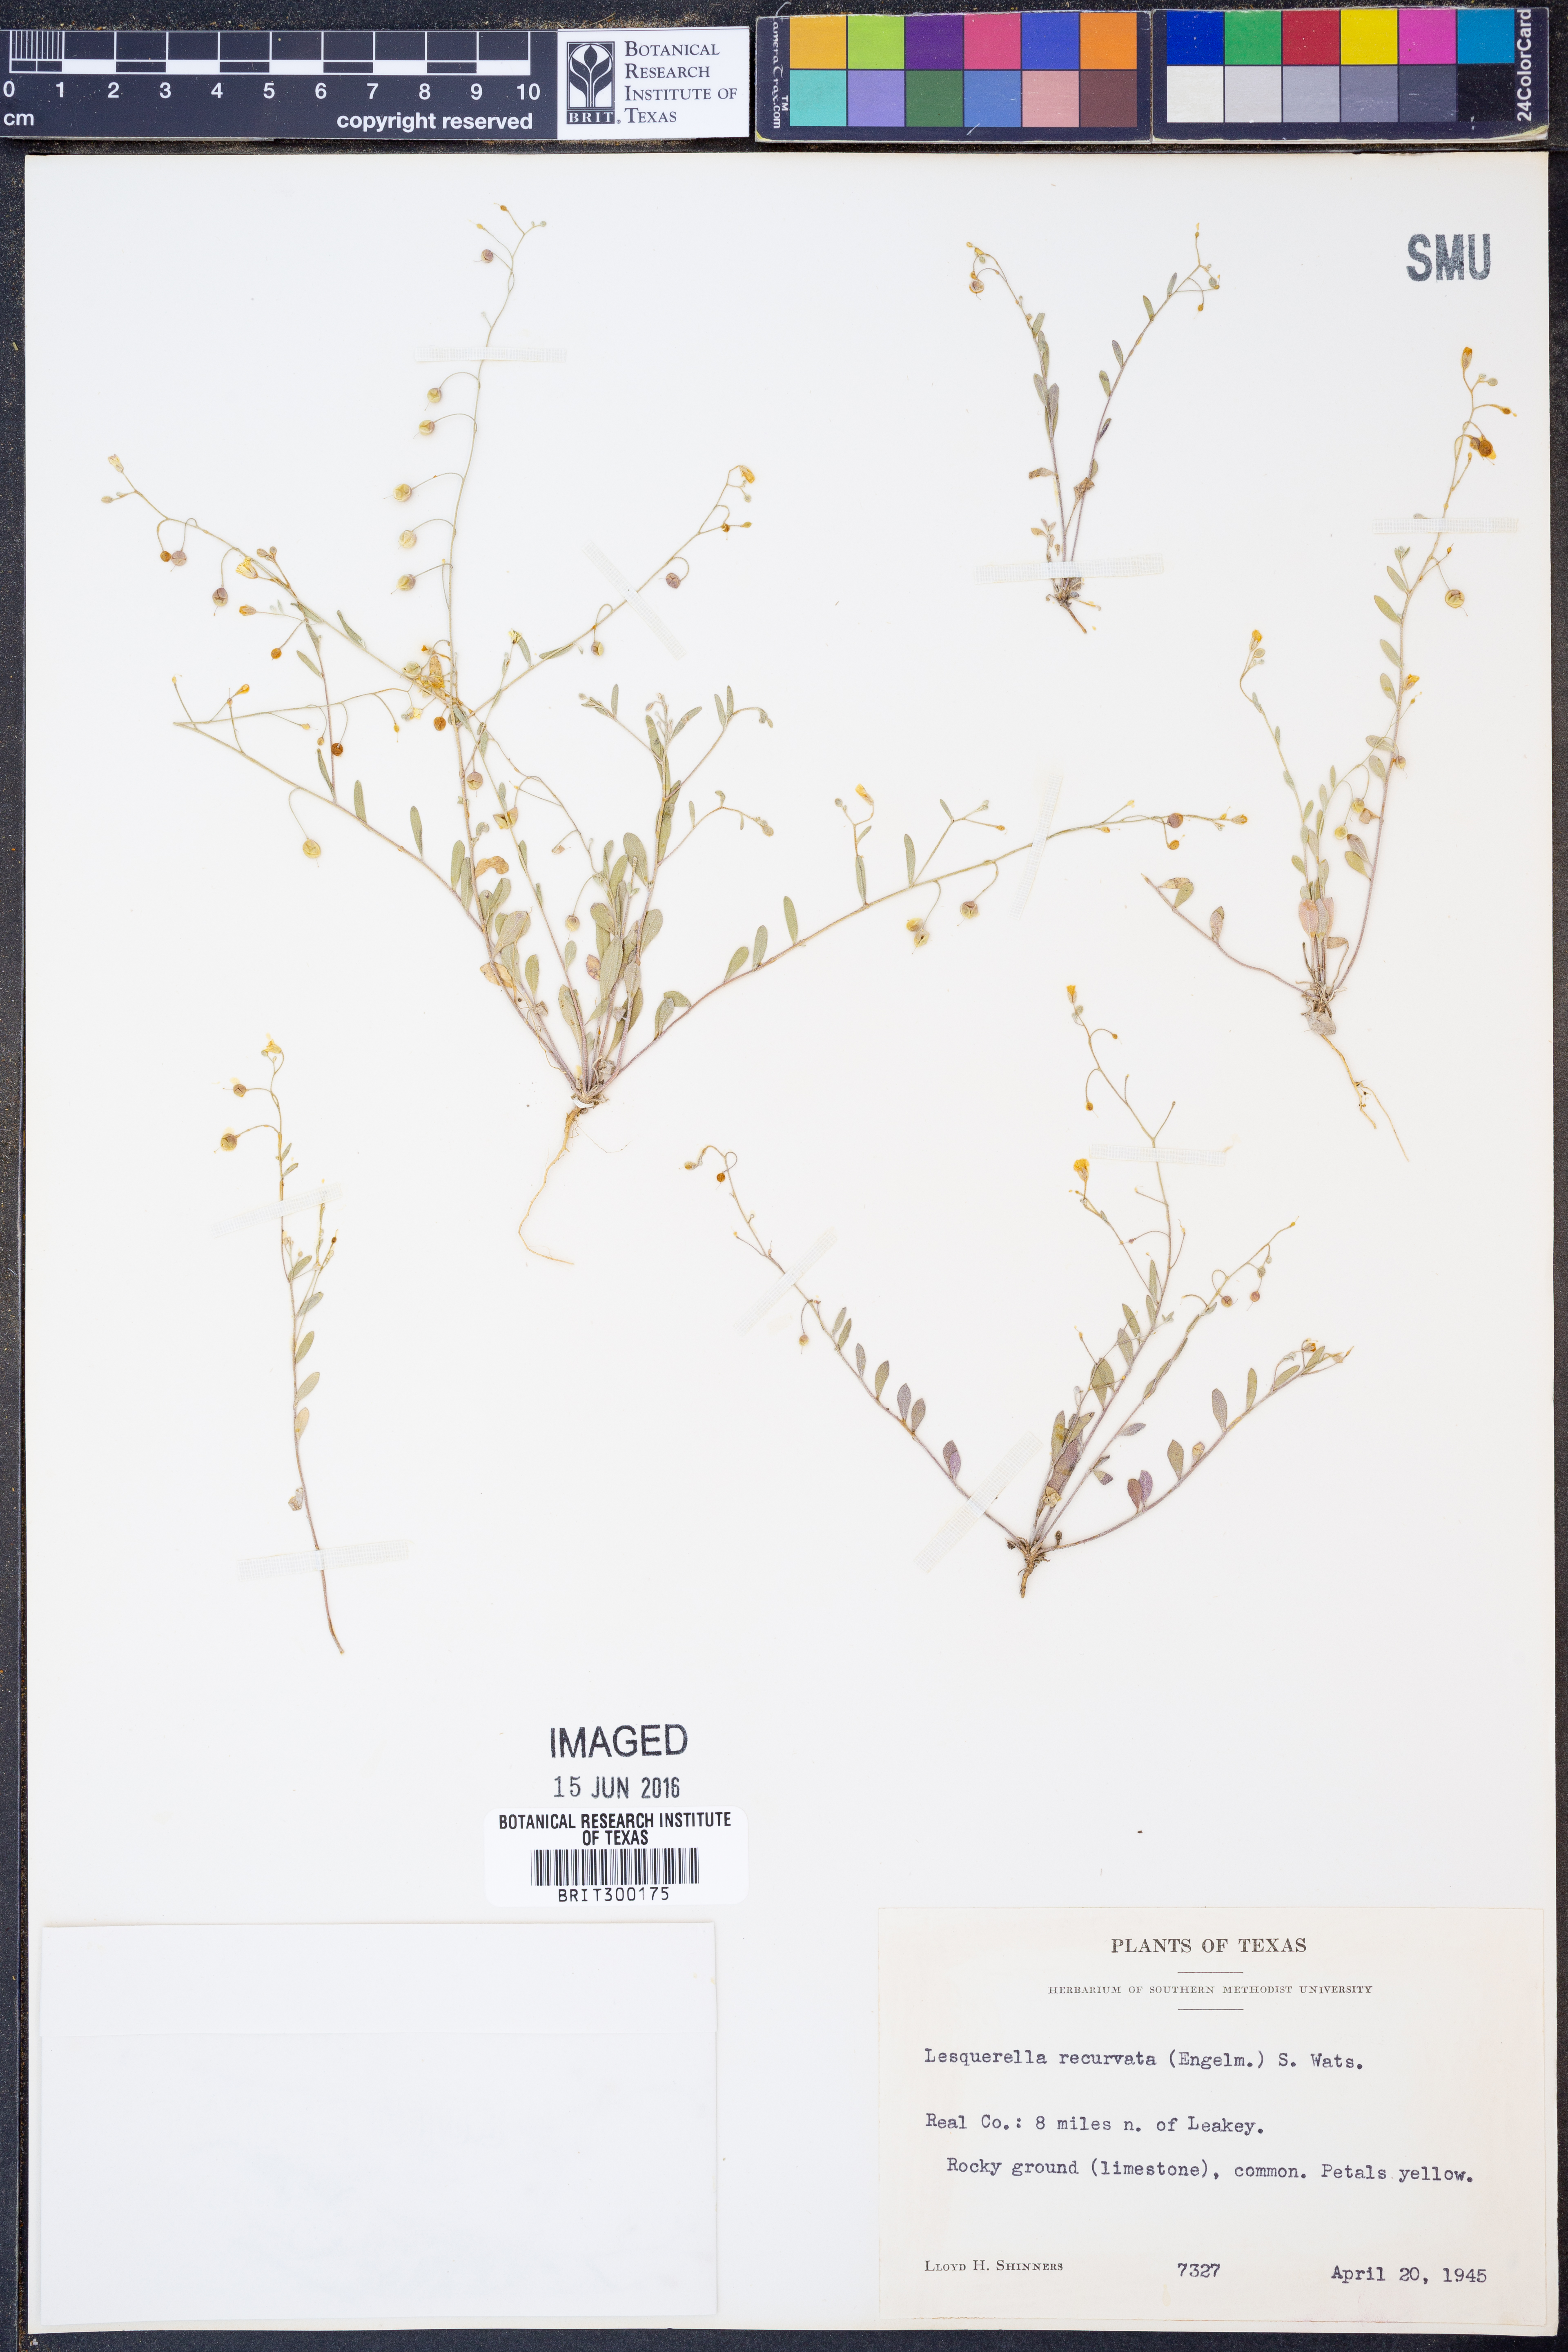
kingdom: Plantae
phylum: Tracheophyta
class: Magnoliopsida
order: Brassicales
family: Brassicaceae
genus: Physaria
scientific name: Physaria recurvata
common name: Gaslight bladderpod
